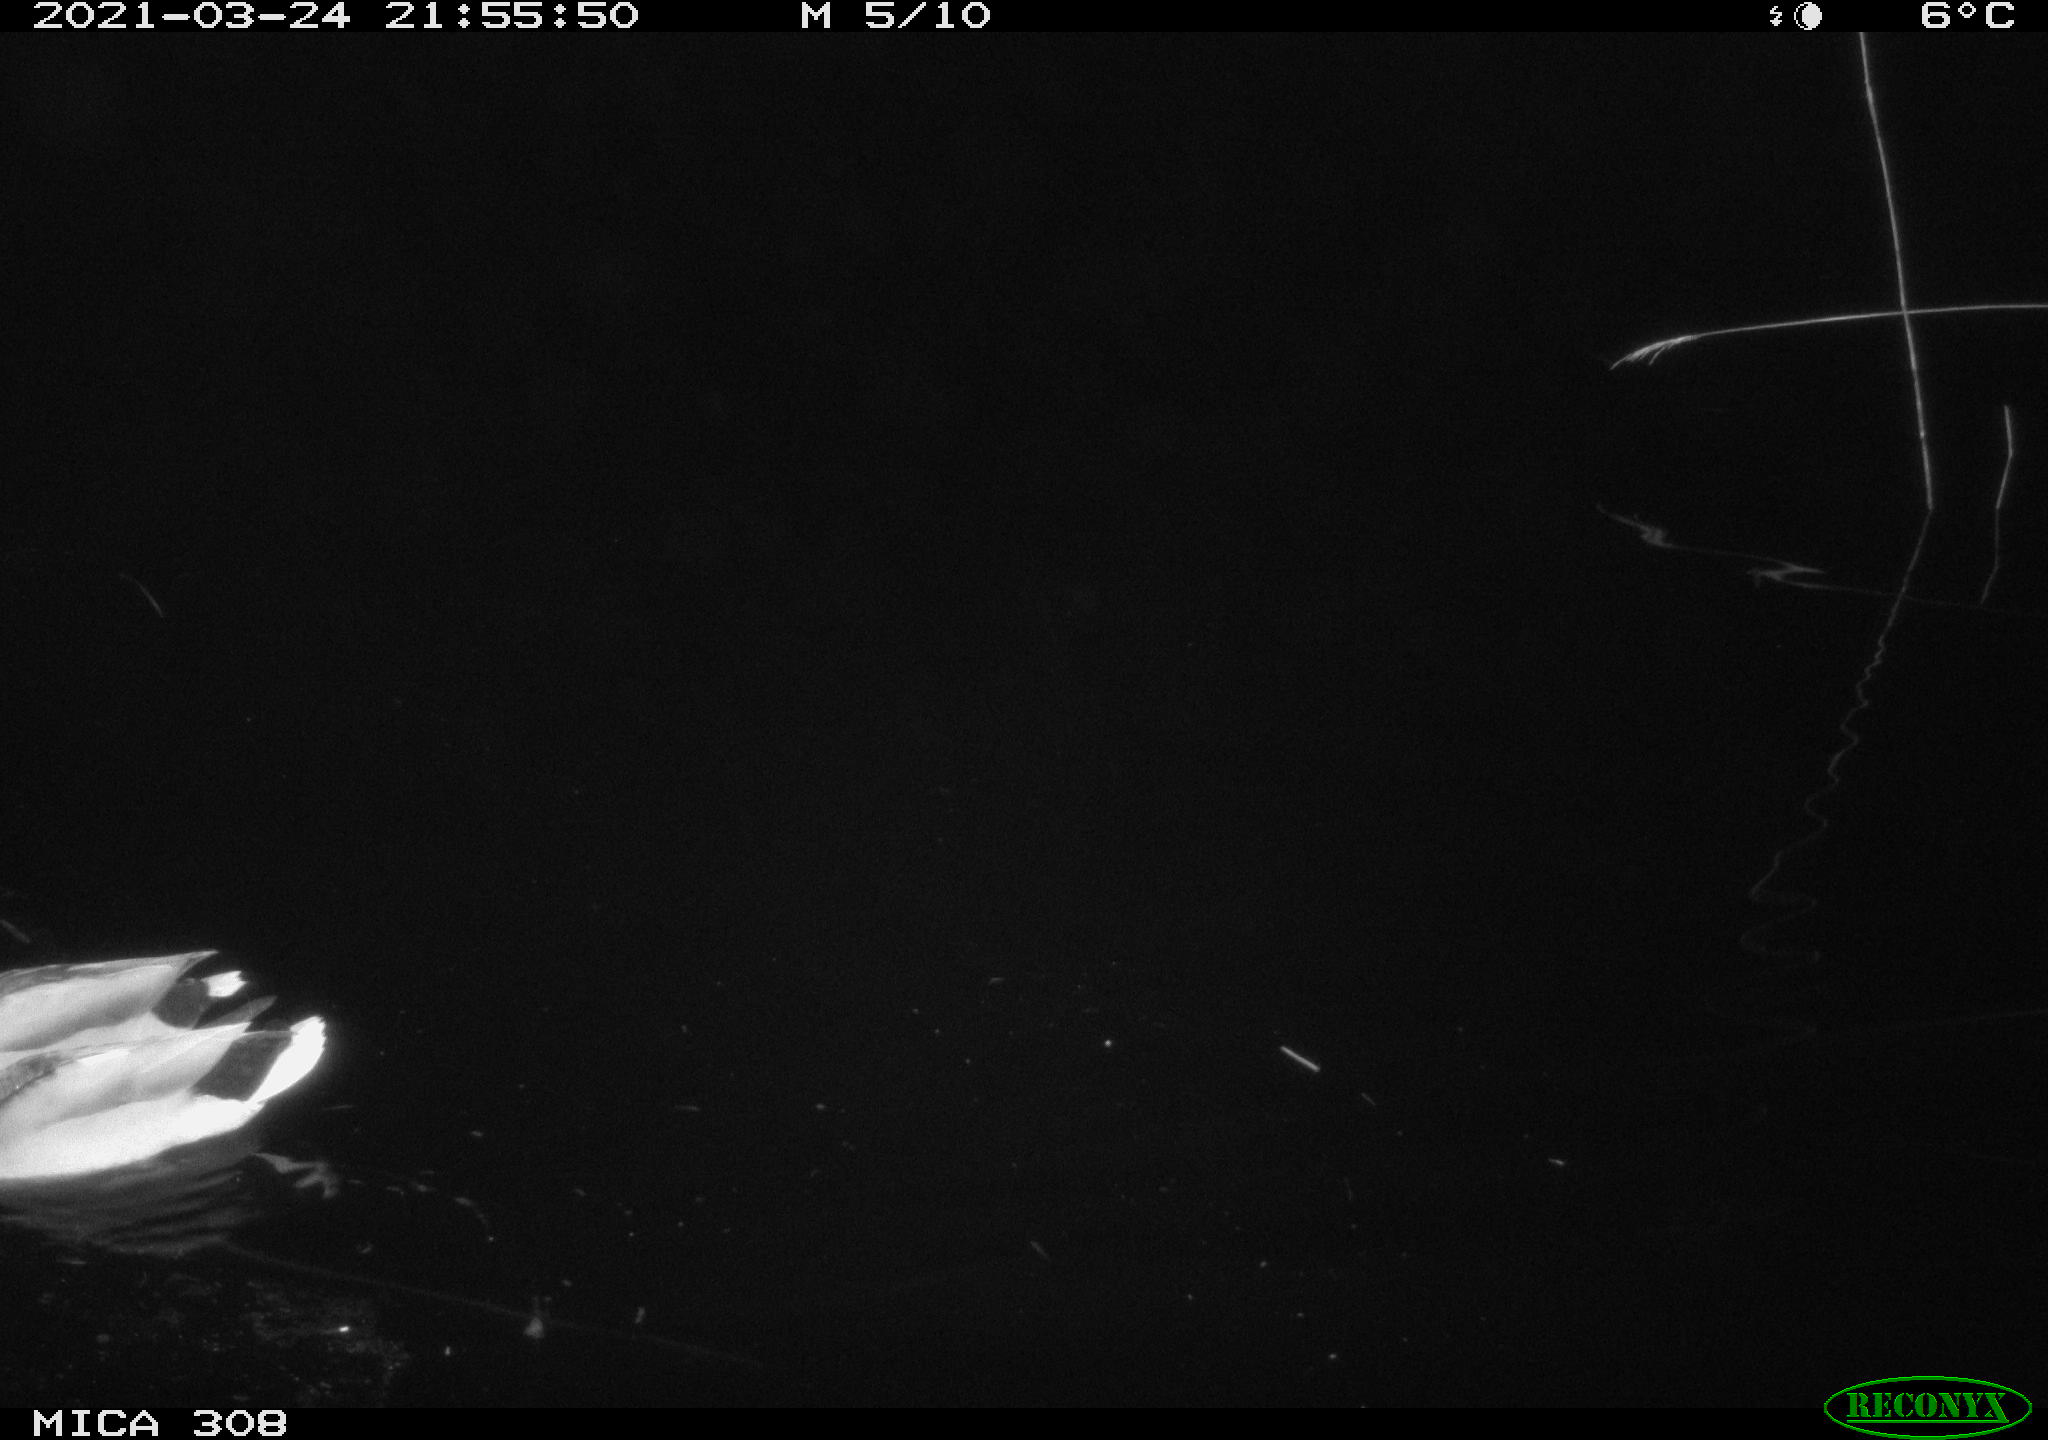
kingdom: Animalia
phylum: Chordata
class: Aves
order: Anseriformes
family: Anatidae
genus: Anas
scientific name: Anas platyrhynchos
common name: Mallard
